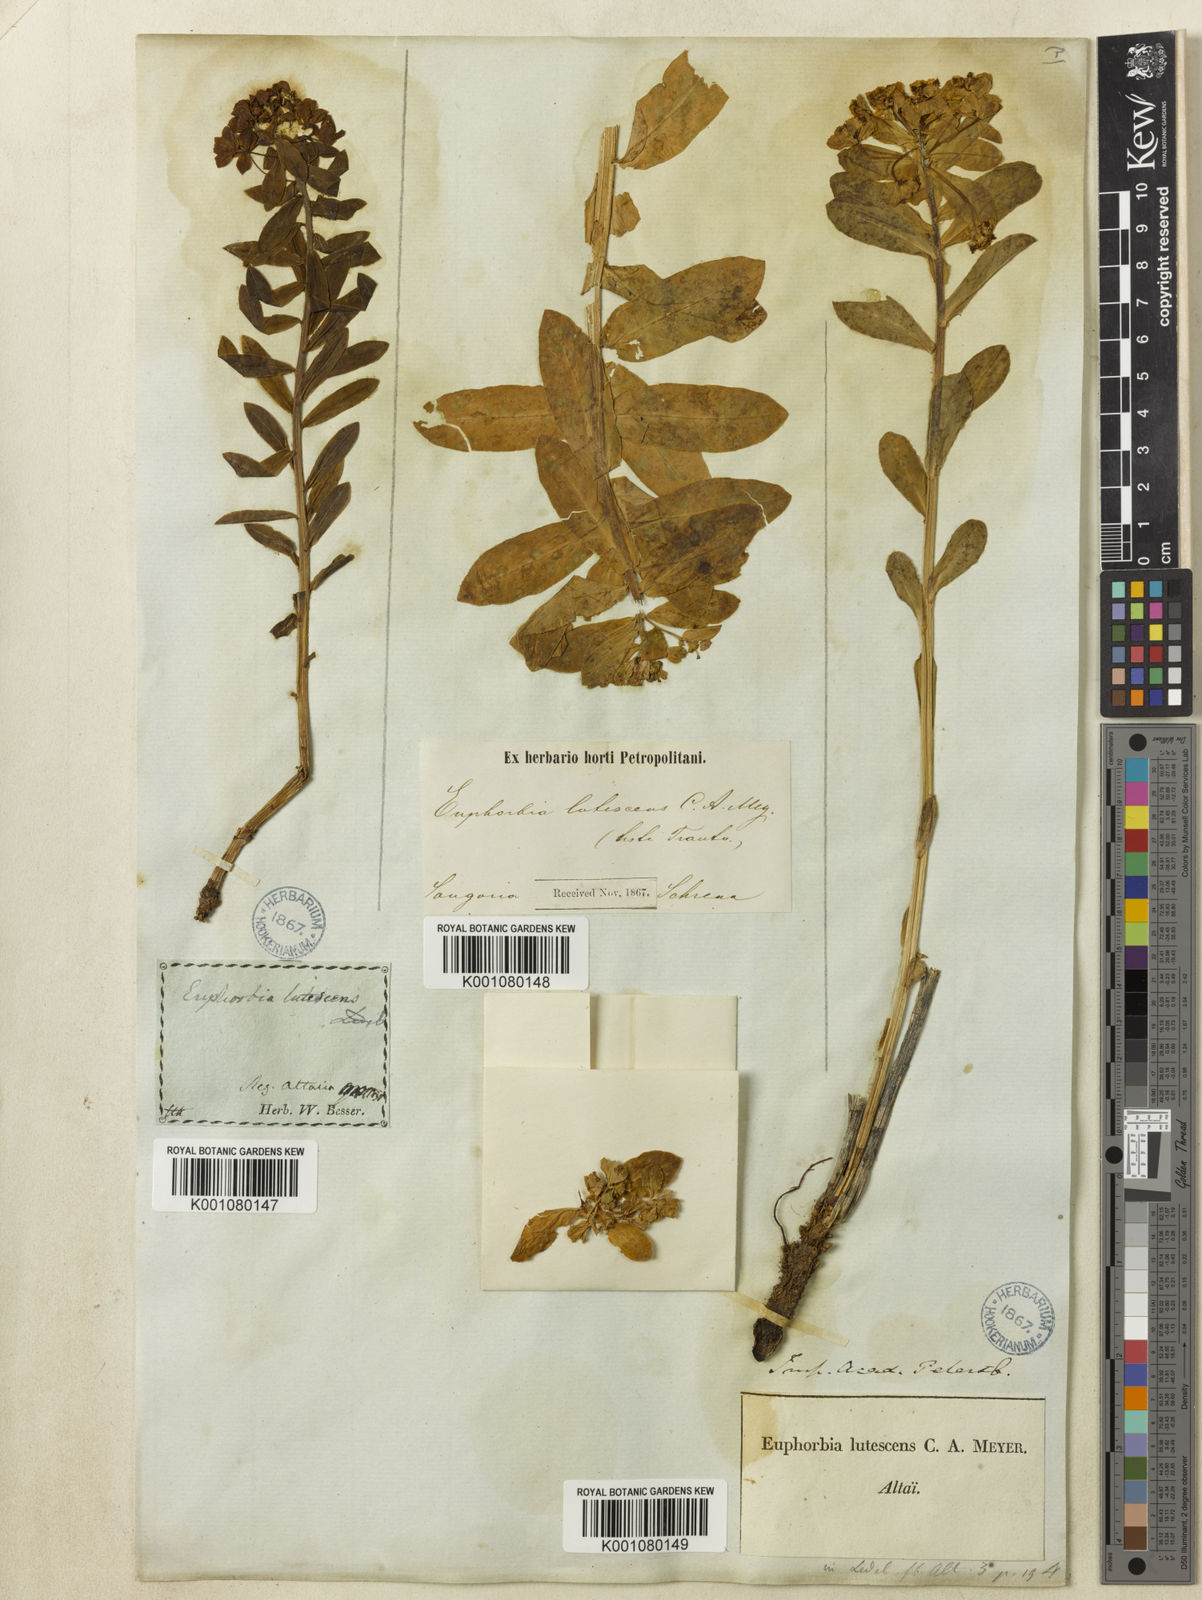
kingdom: Plantae
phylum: Tracheophyta
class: Magnoliopsida
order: Malpighiales
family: Euphorbiaceae
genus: Euphorbia
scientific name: Euphorbia
